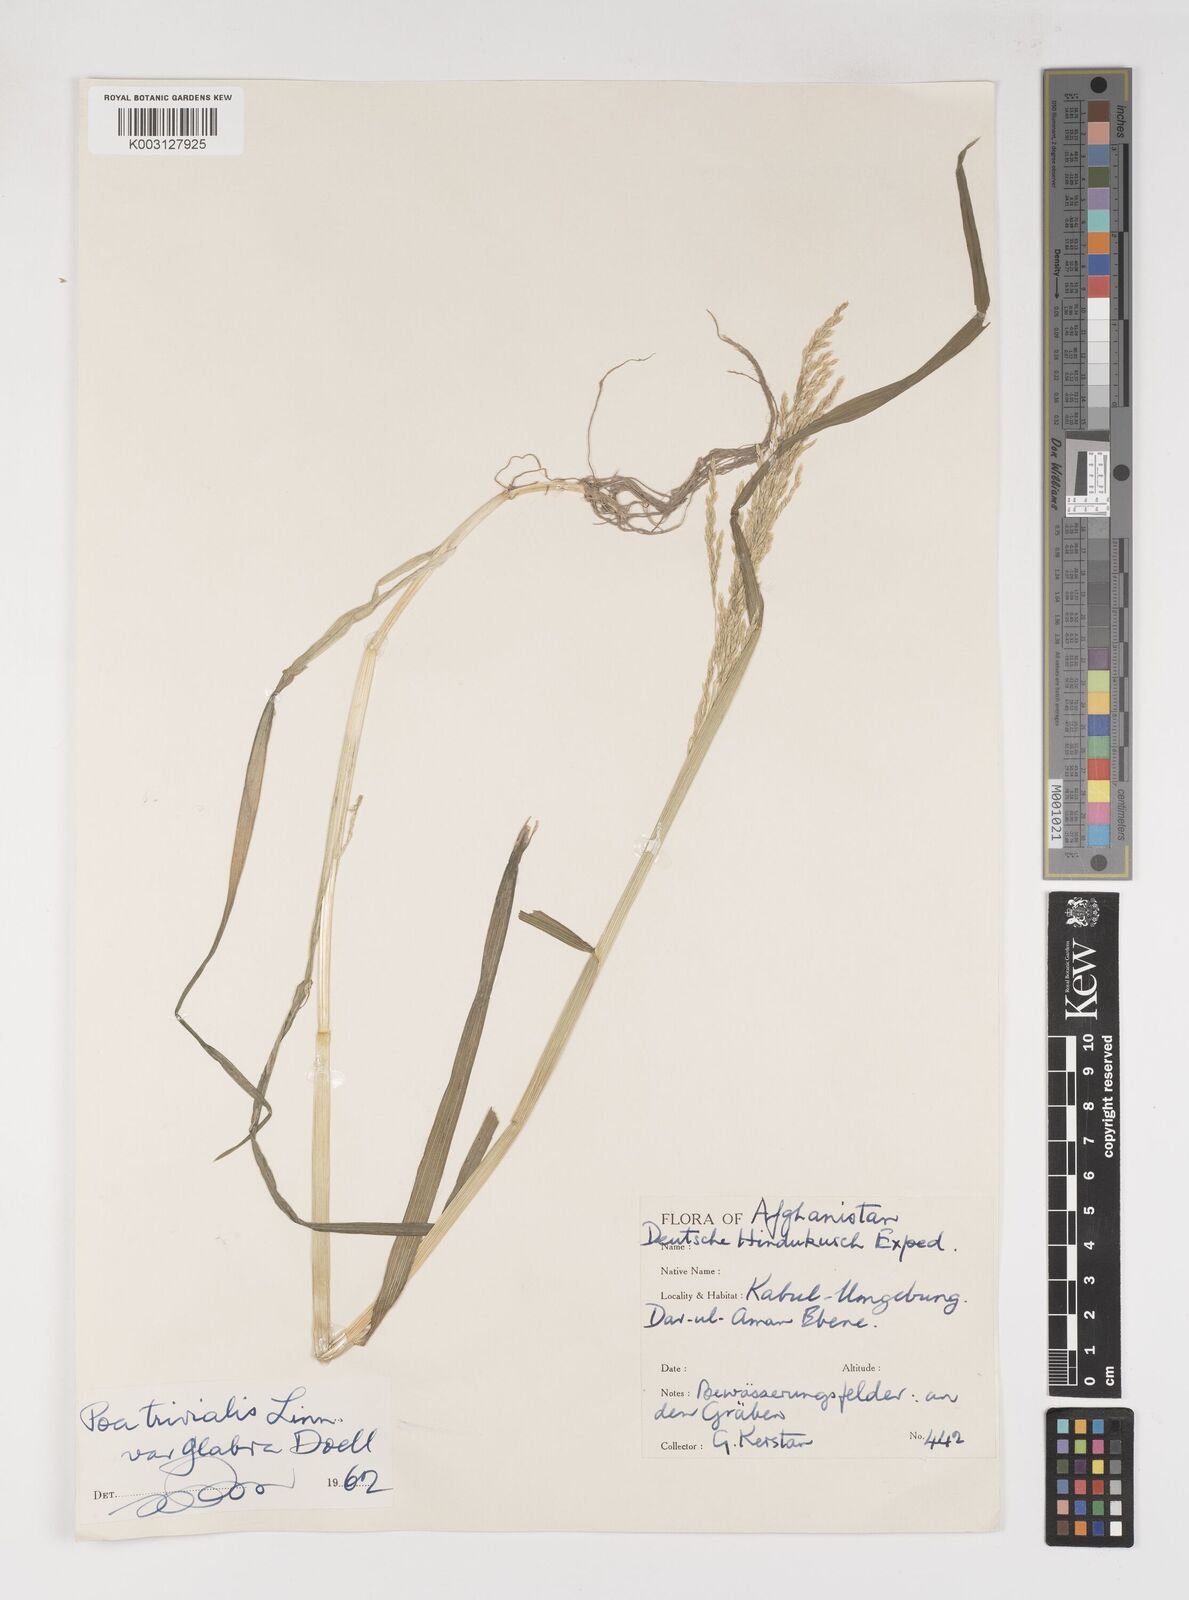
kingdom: Plantae
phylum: Tracheophyta
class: Liliopsida
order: Poales
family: Poaceae
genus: Poa
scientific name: Poa trivialis
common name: Rough bluegrass
